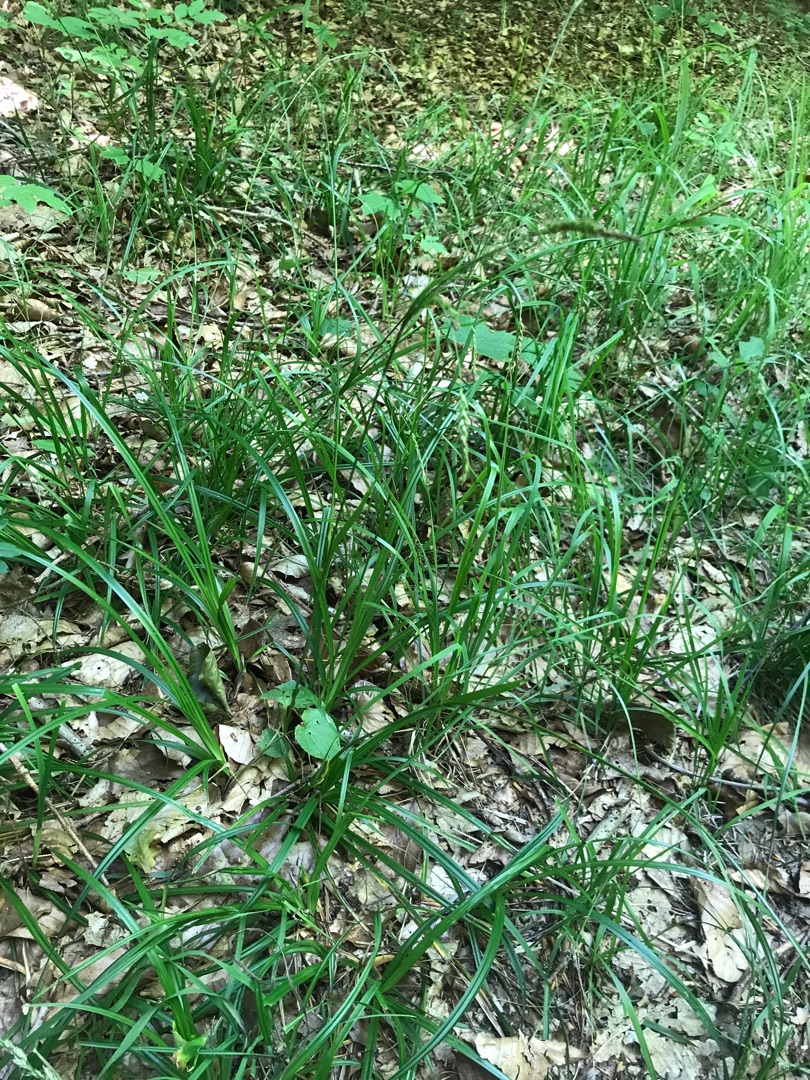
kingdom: Plantae
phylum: Tracheophyta
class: Liliopsida
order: Poales
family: Cyperaceae
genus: Carex
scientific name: Carex sylvatica
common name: Skov-star
